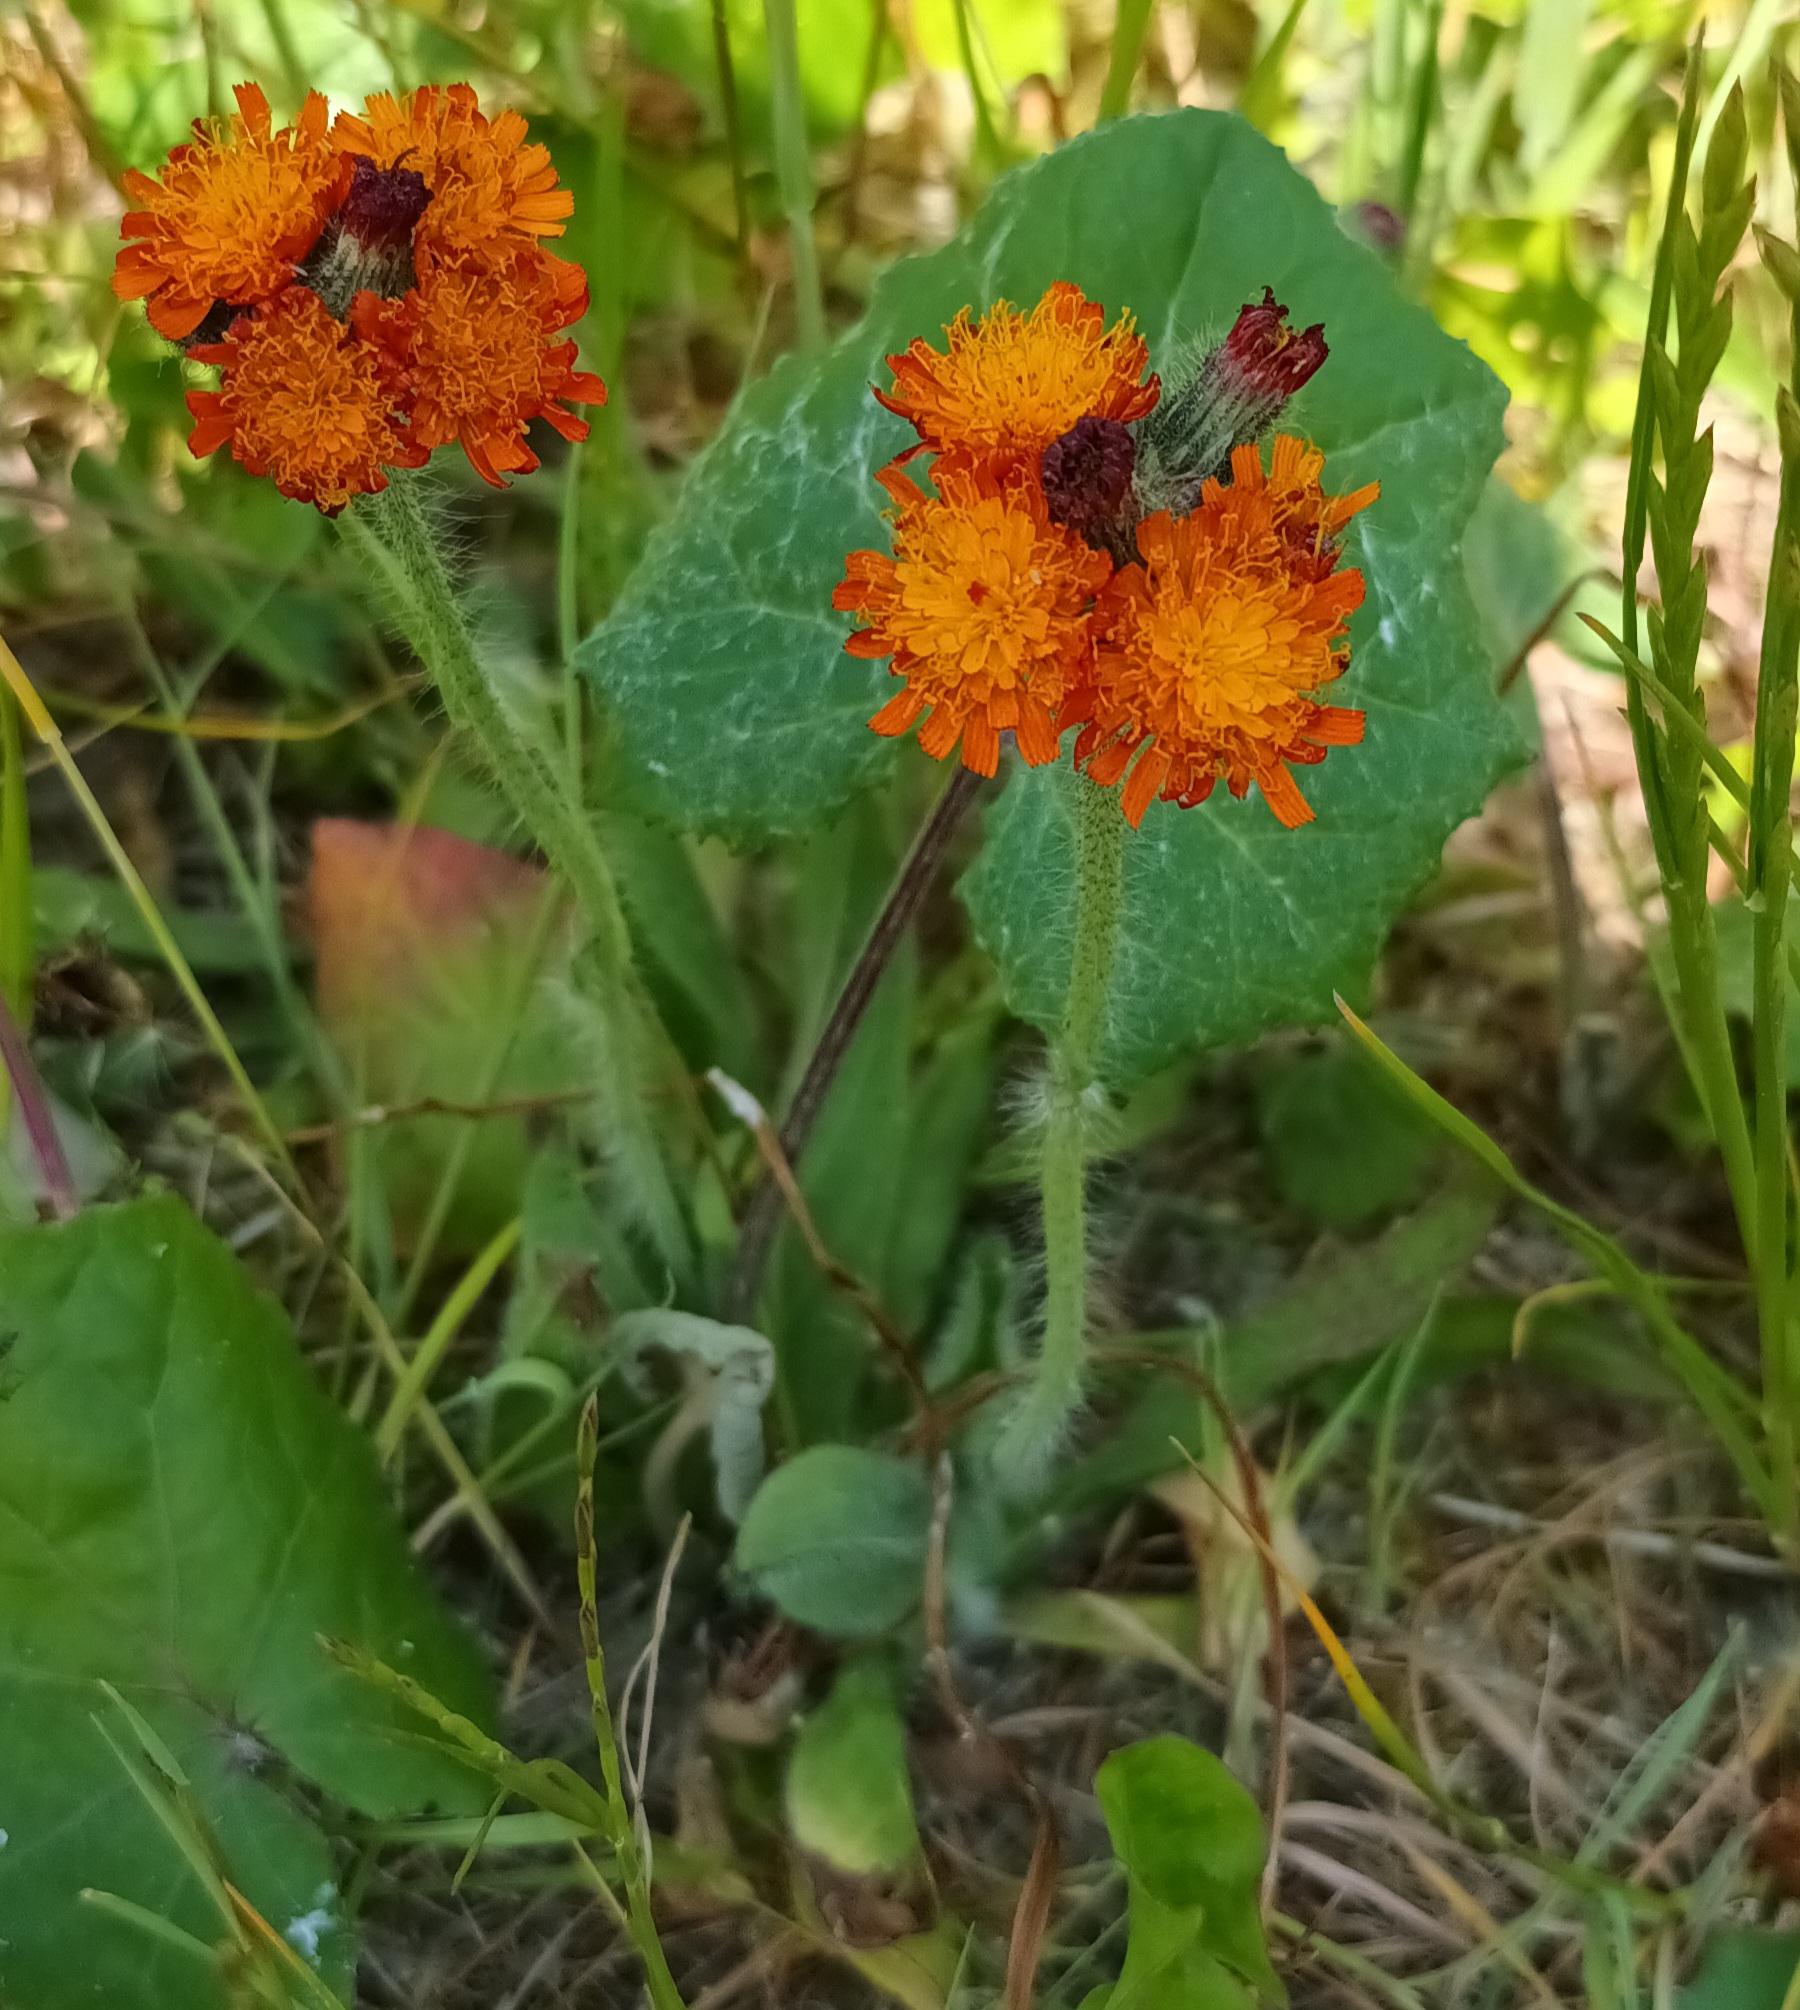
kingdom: Plantae
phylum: Tracheophyta
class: Magnoliopsida
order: Asterales
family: Asteraceae
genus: Pilosella
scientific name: Pilosella aurantiaca
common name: Pomerans-høgeurt
